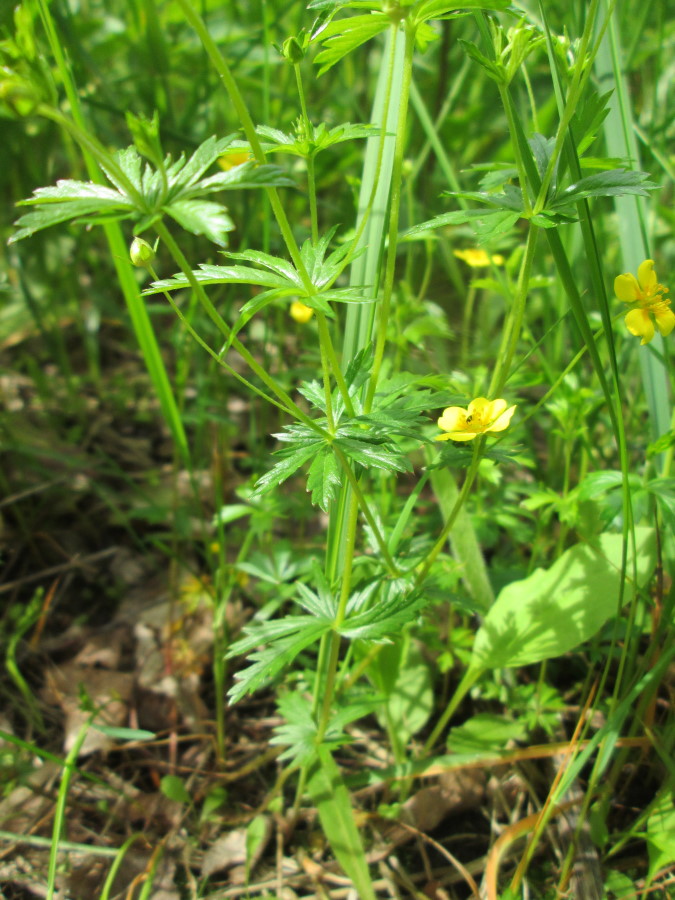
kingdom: Plantae
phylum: Tracheophyta
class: Magnoliopsida
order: Rosales
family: Rosaceae
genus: Potentilla
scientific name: Potentilla erecta
